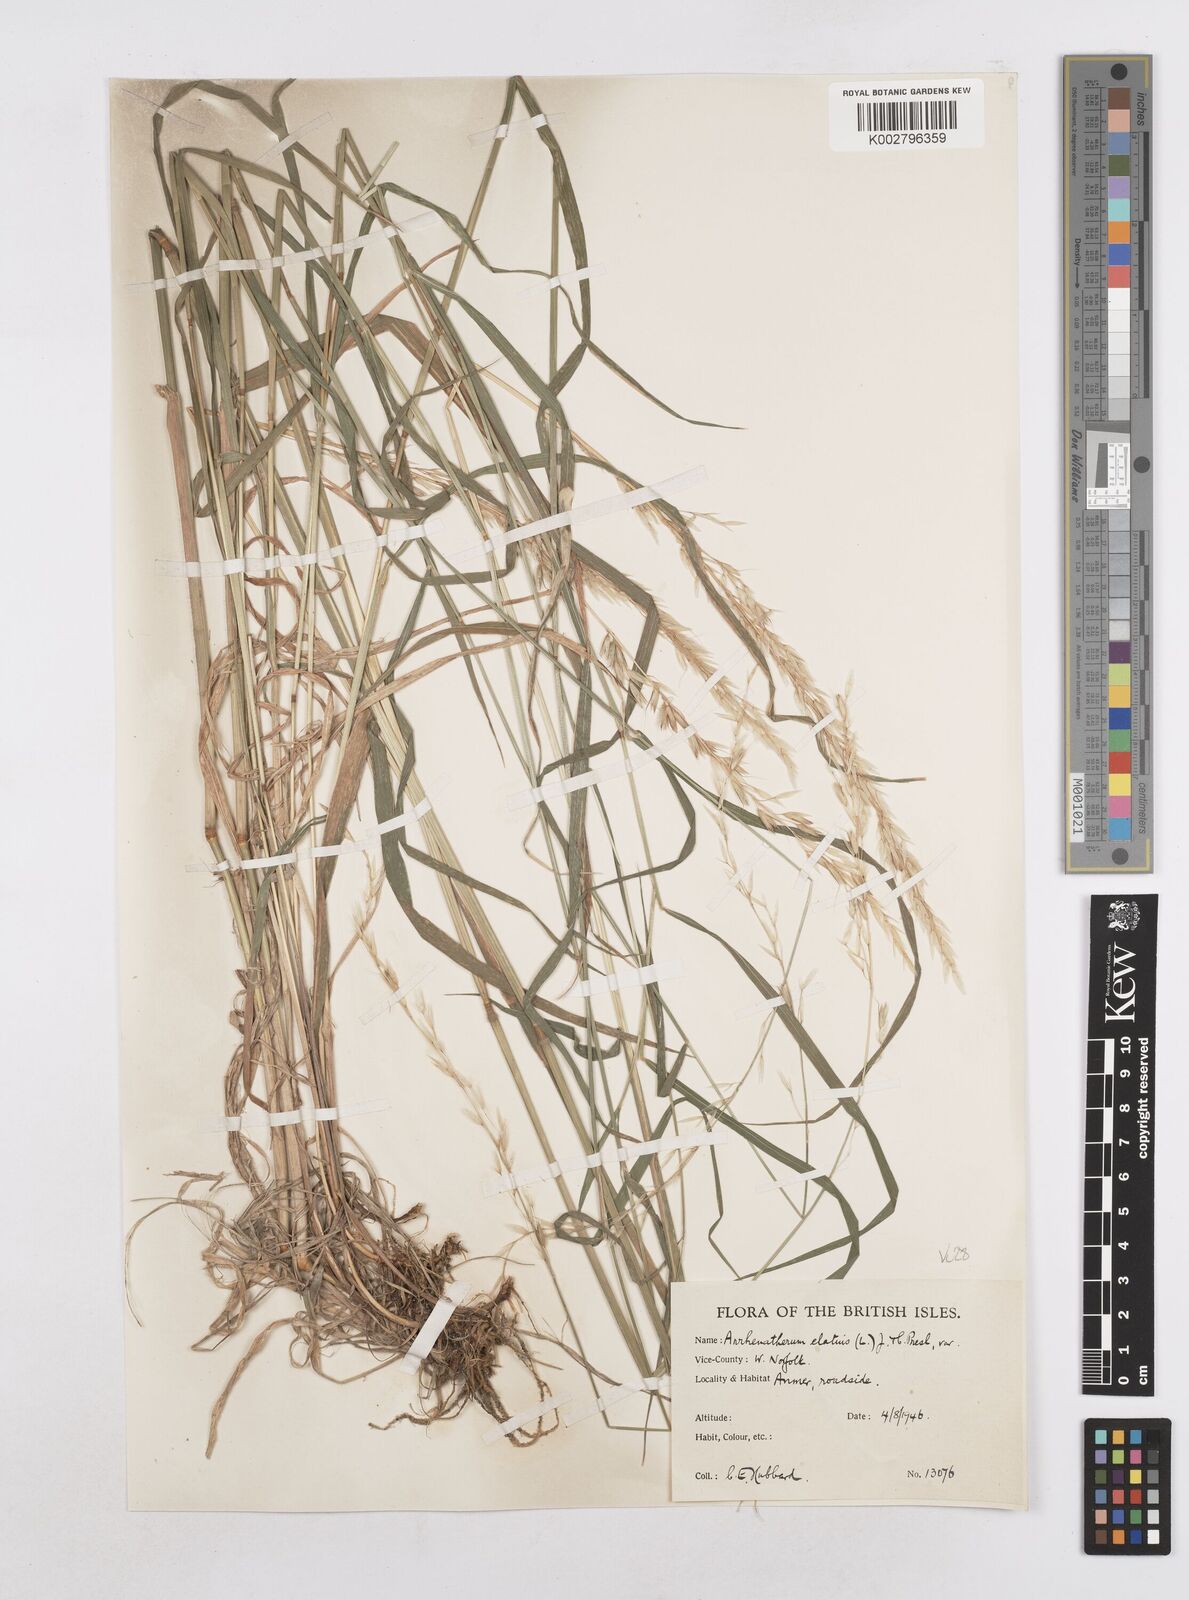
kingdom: Plantae
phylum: Tracheophyta
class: Liliopsida
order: Poales
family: Poaceae
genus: Arrhenatherum
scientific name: Arrhenatherum elatius
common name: Tall oatgrass
